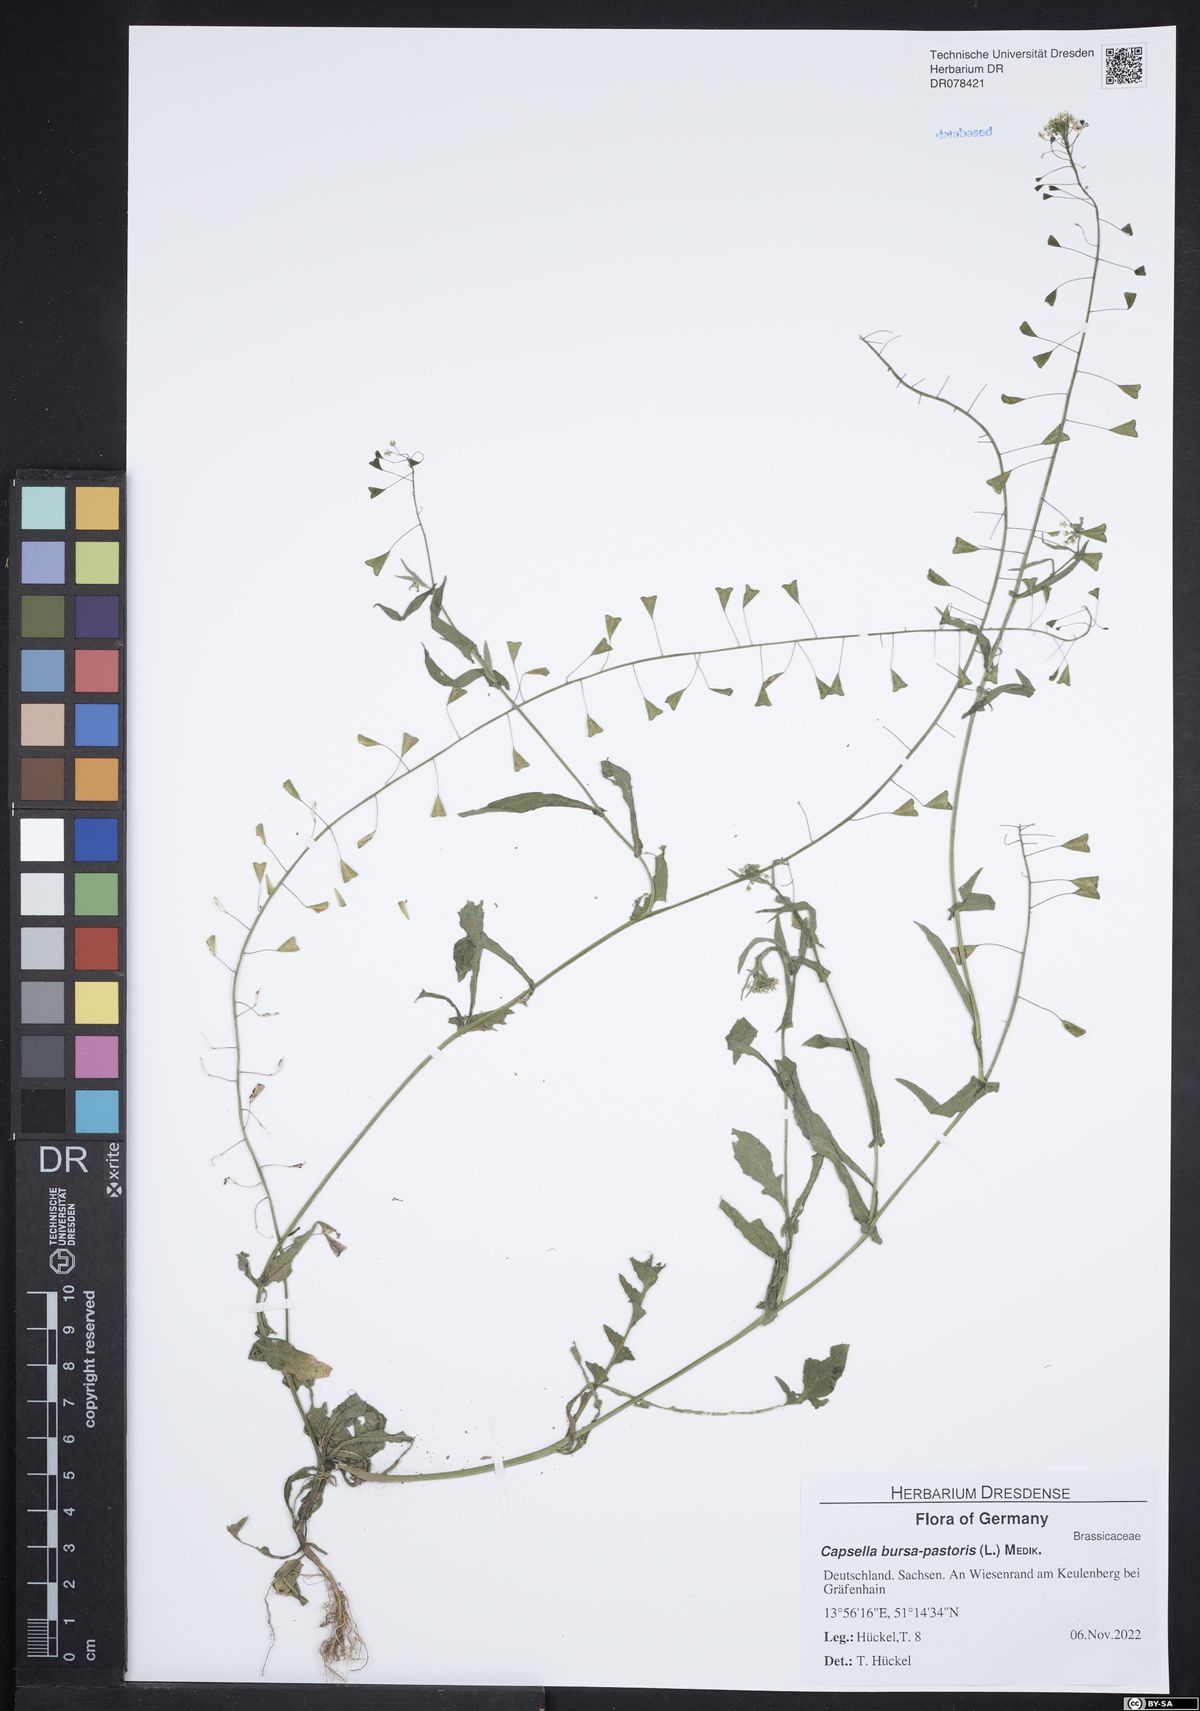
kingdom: Plantae
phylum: Tracheophyta
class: Magnoliopsida
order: Brassicales
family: Brassicaceae
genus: Capsella
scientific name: Capsella bursa-pastoris
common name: Shepherd's purse
